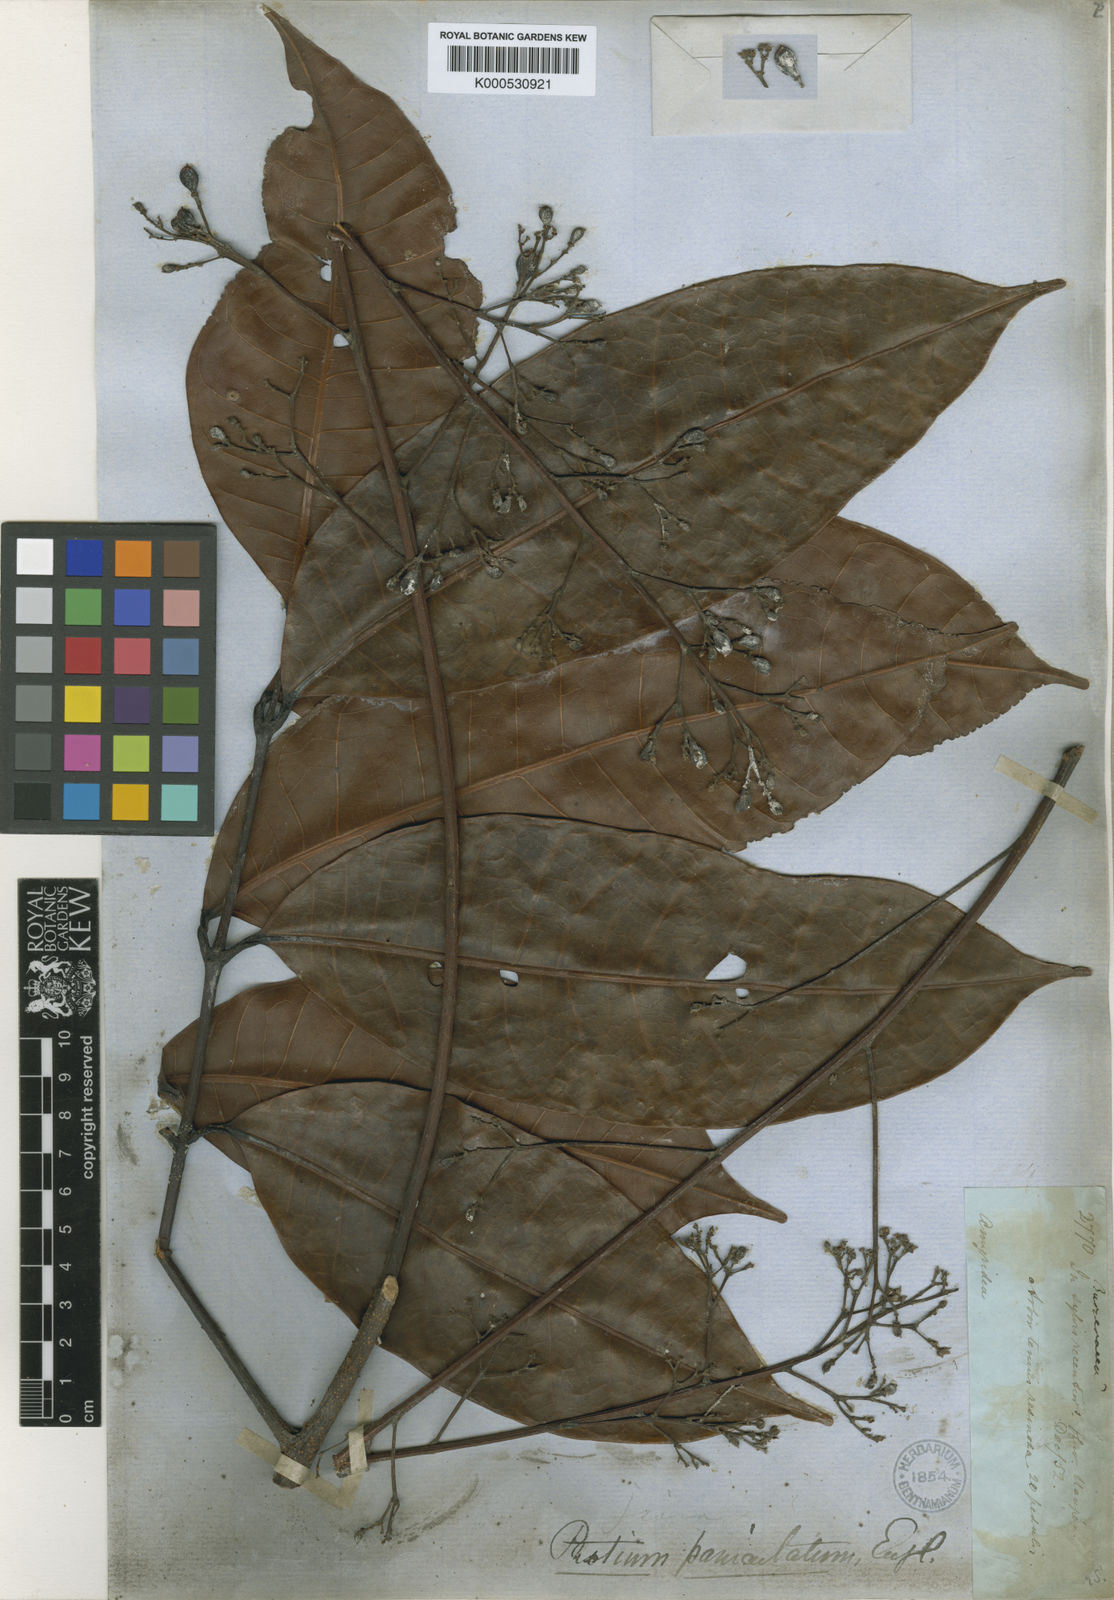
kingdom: Plantae
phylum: Tracheophyta
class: Magnoliopsida
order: Sapindales
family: Burseraceae
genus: Protium
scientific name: Protium paniculatum
